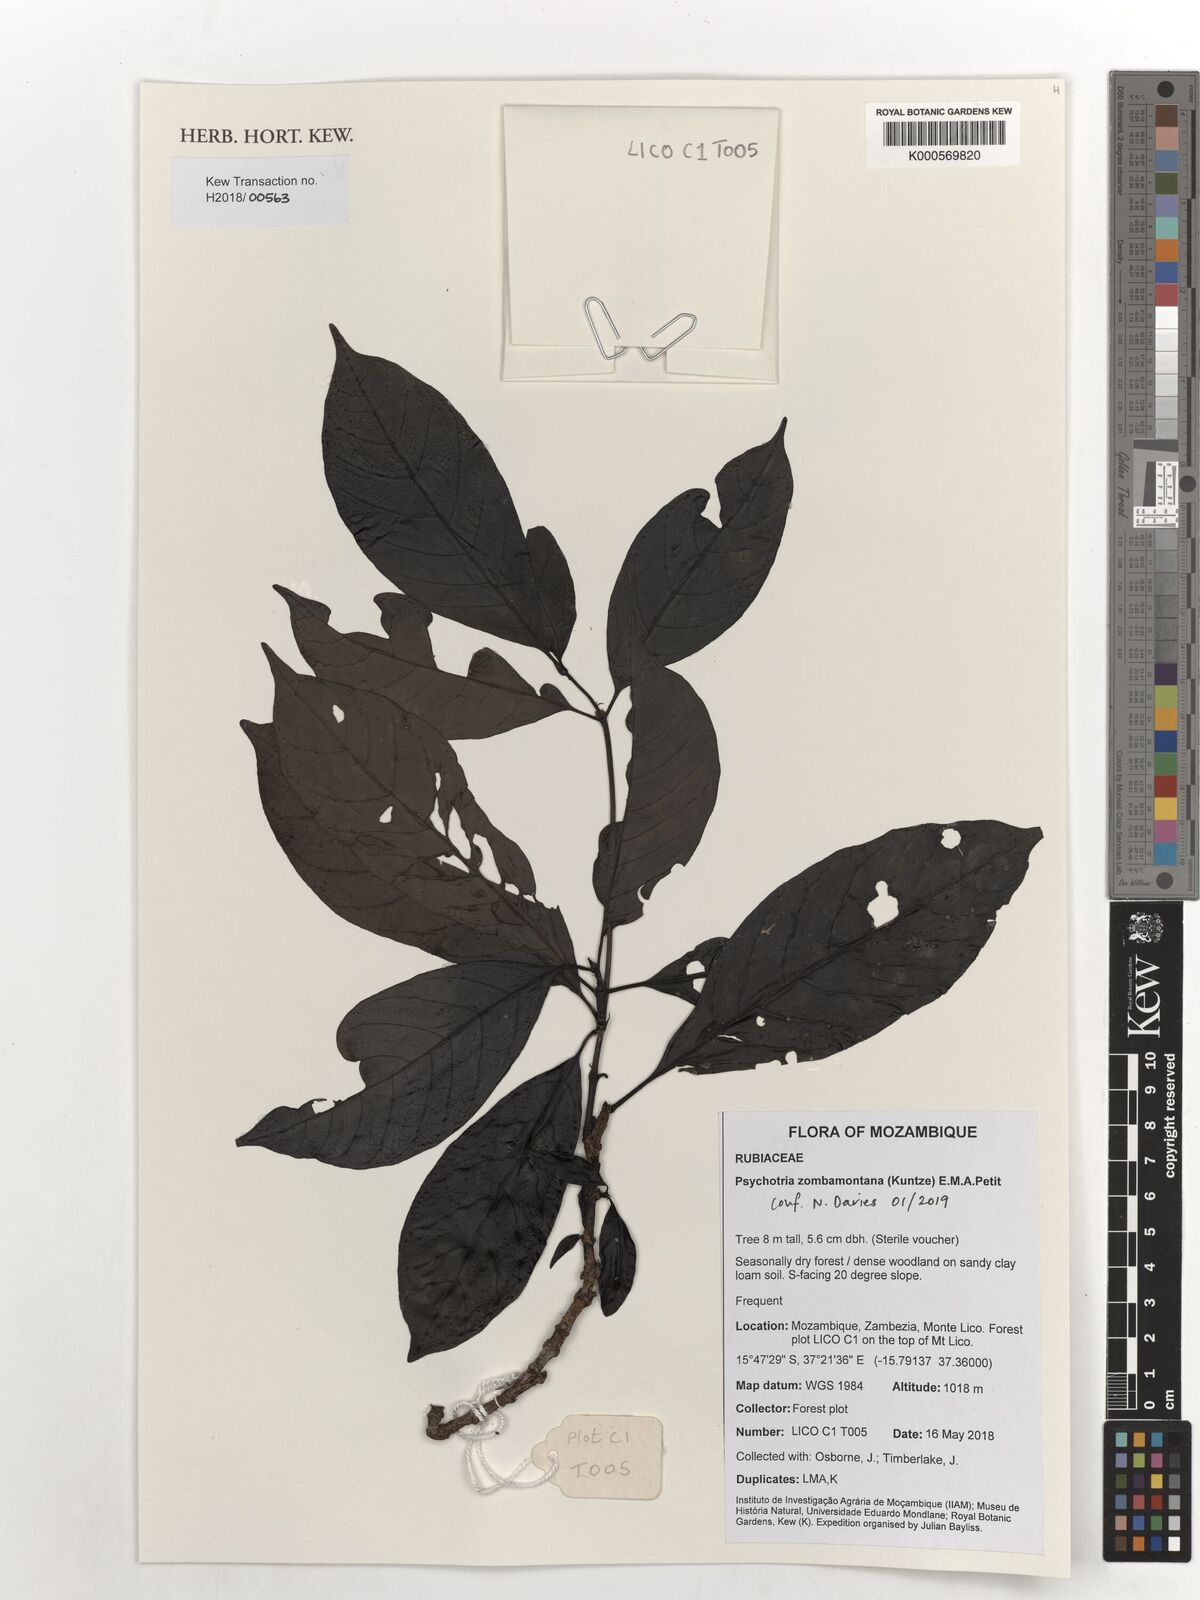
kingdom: Plantae
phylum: Tracheophyta
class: Magnoliopsida
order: Gentianales
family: Rubiaceae
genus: Psychotria
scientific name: Psychotria zombamontana
